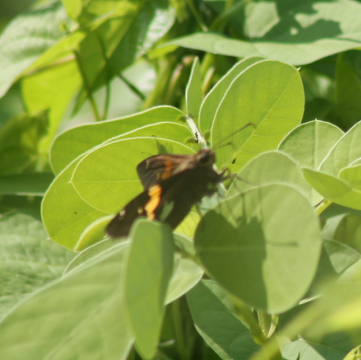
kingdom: Animalia
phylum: Arthropoda
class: Insecta
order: Lepidoptera
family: Hesperiidae
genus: Epargyreus
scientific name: Epargyreus clarus
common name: Silver-spotted Skipper
